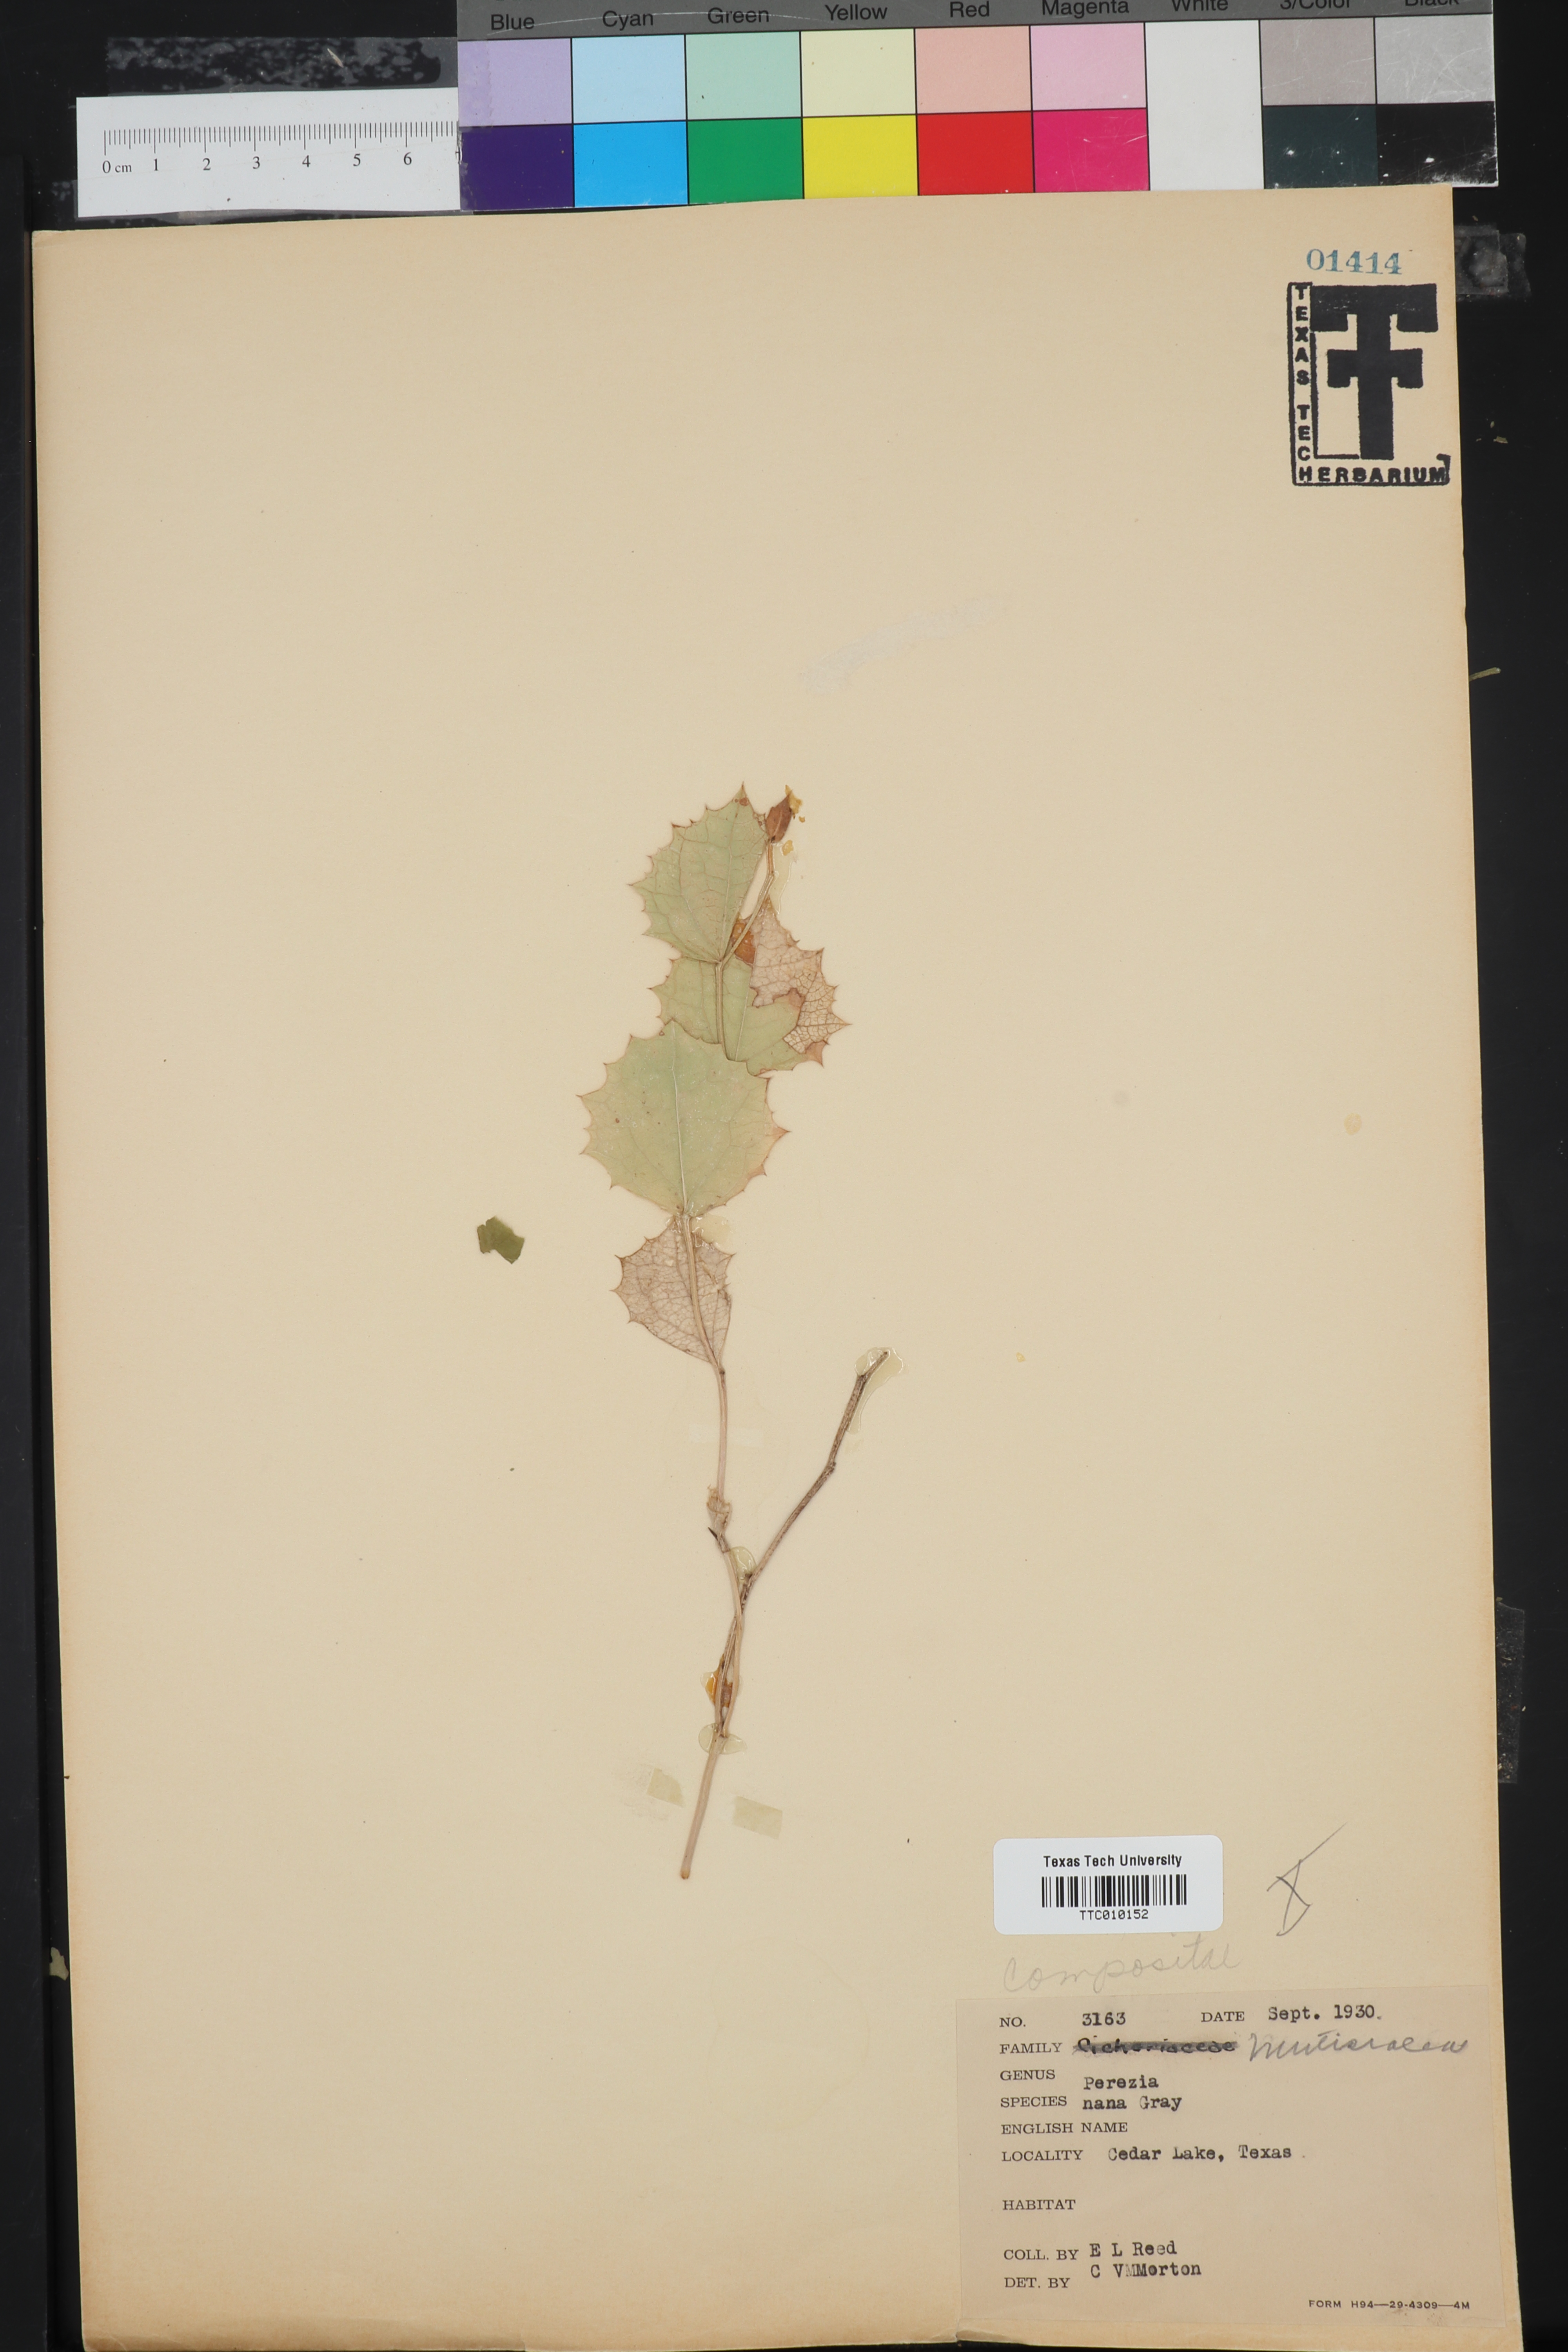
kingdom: Plantae
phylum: Tracheophyta
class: Magnoliopsida
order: Asterales
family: Asteraceae
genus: Acourtia
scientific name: Acourtia nana
